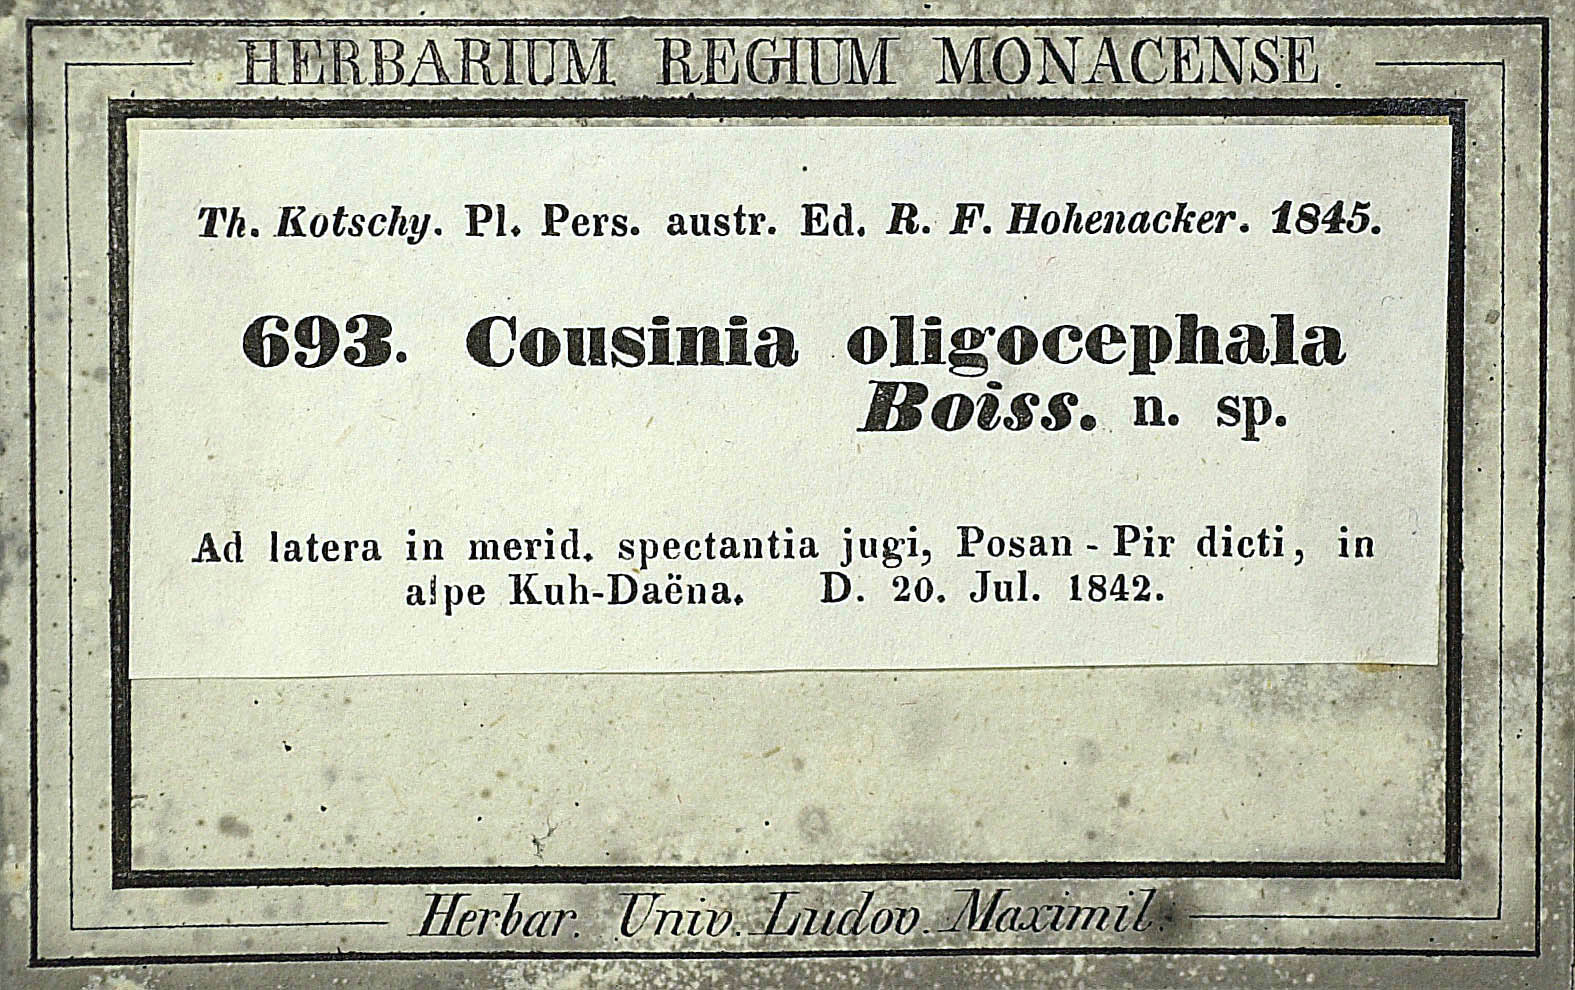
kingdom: Plantae
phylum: Tracheophyta
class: Magnoliopsida
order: Asterales
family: Asteraceae
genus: Cousinia
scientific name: Cousinia oligocephala
